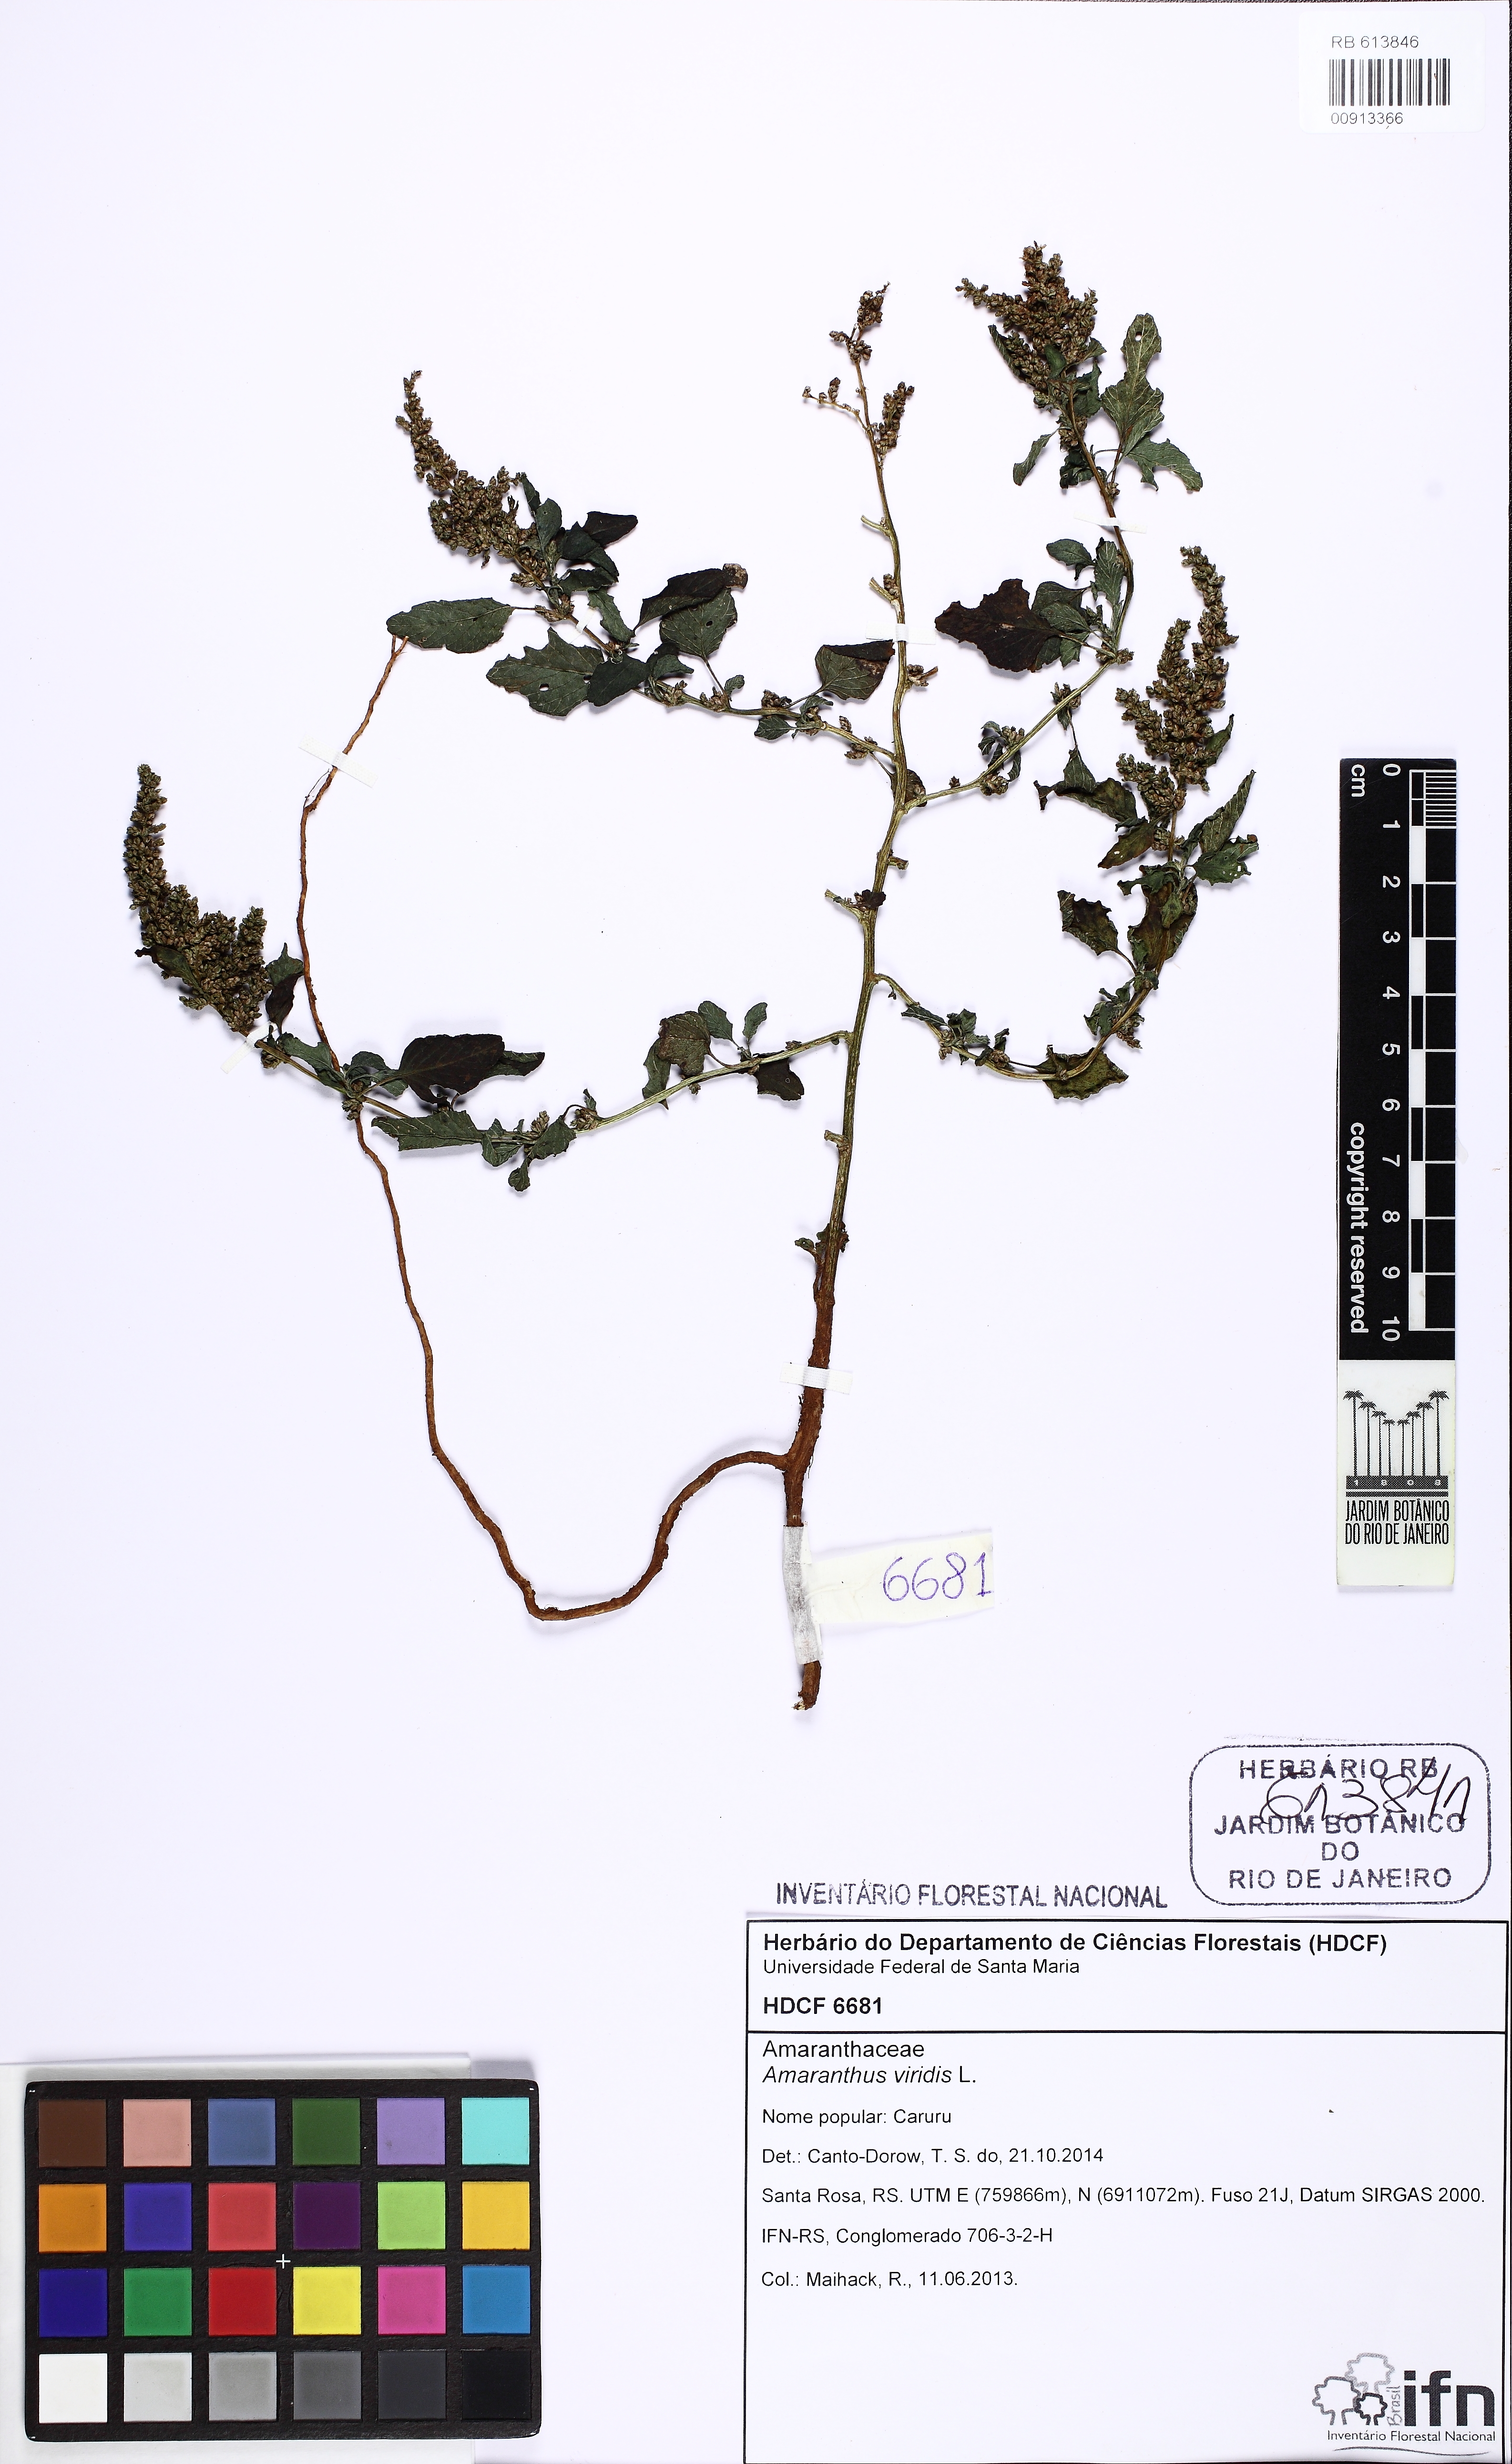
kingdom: Plantae
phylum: Tracheophyta
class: Magnoliopsida
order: Caryophyllales
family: Amaranthaceae
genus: Amaranthus
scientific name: Amaranthus viridis
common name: Slender amaranth
